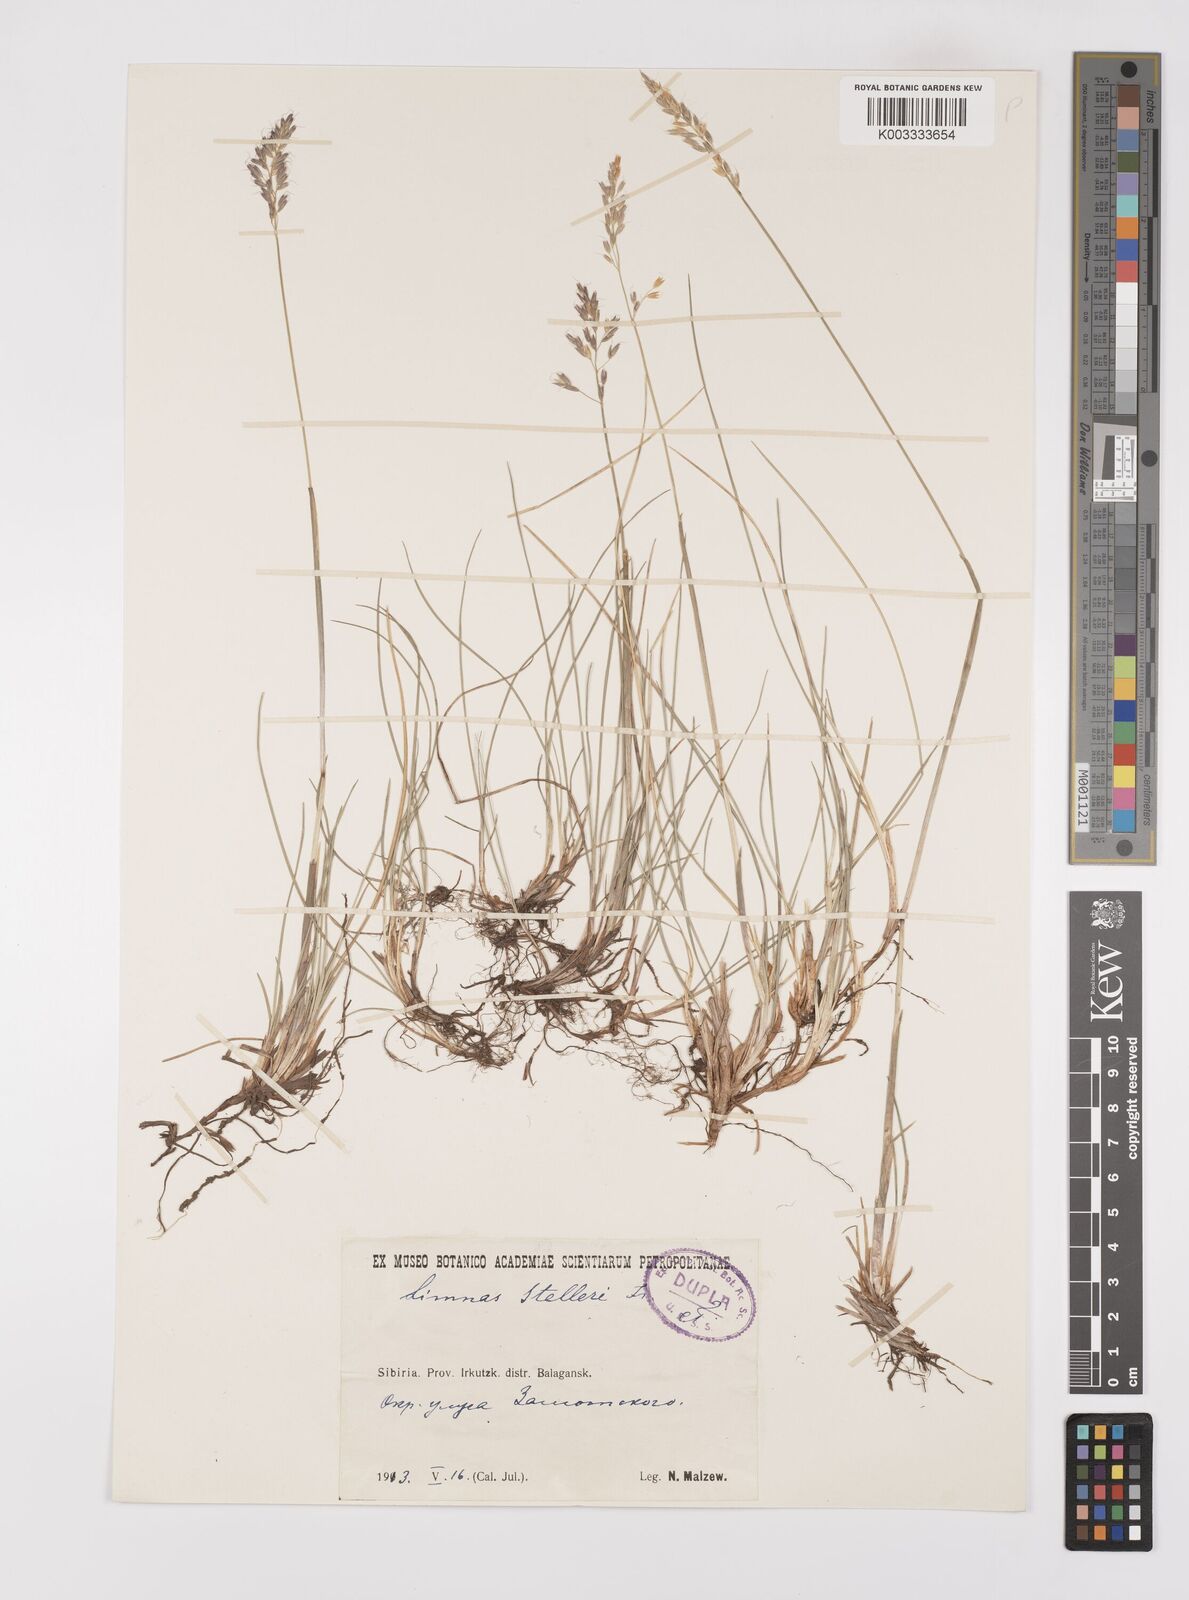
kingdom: Plantae
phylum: Tracheophyta
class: Liliopsida
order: Poales
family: Poaceae
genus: Limnas
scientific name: Limnas stelleri
